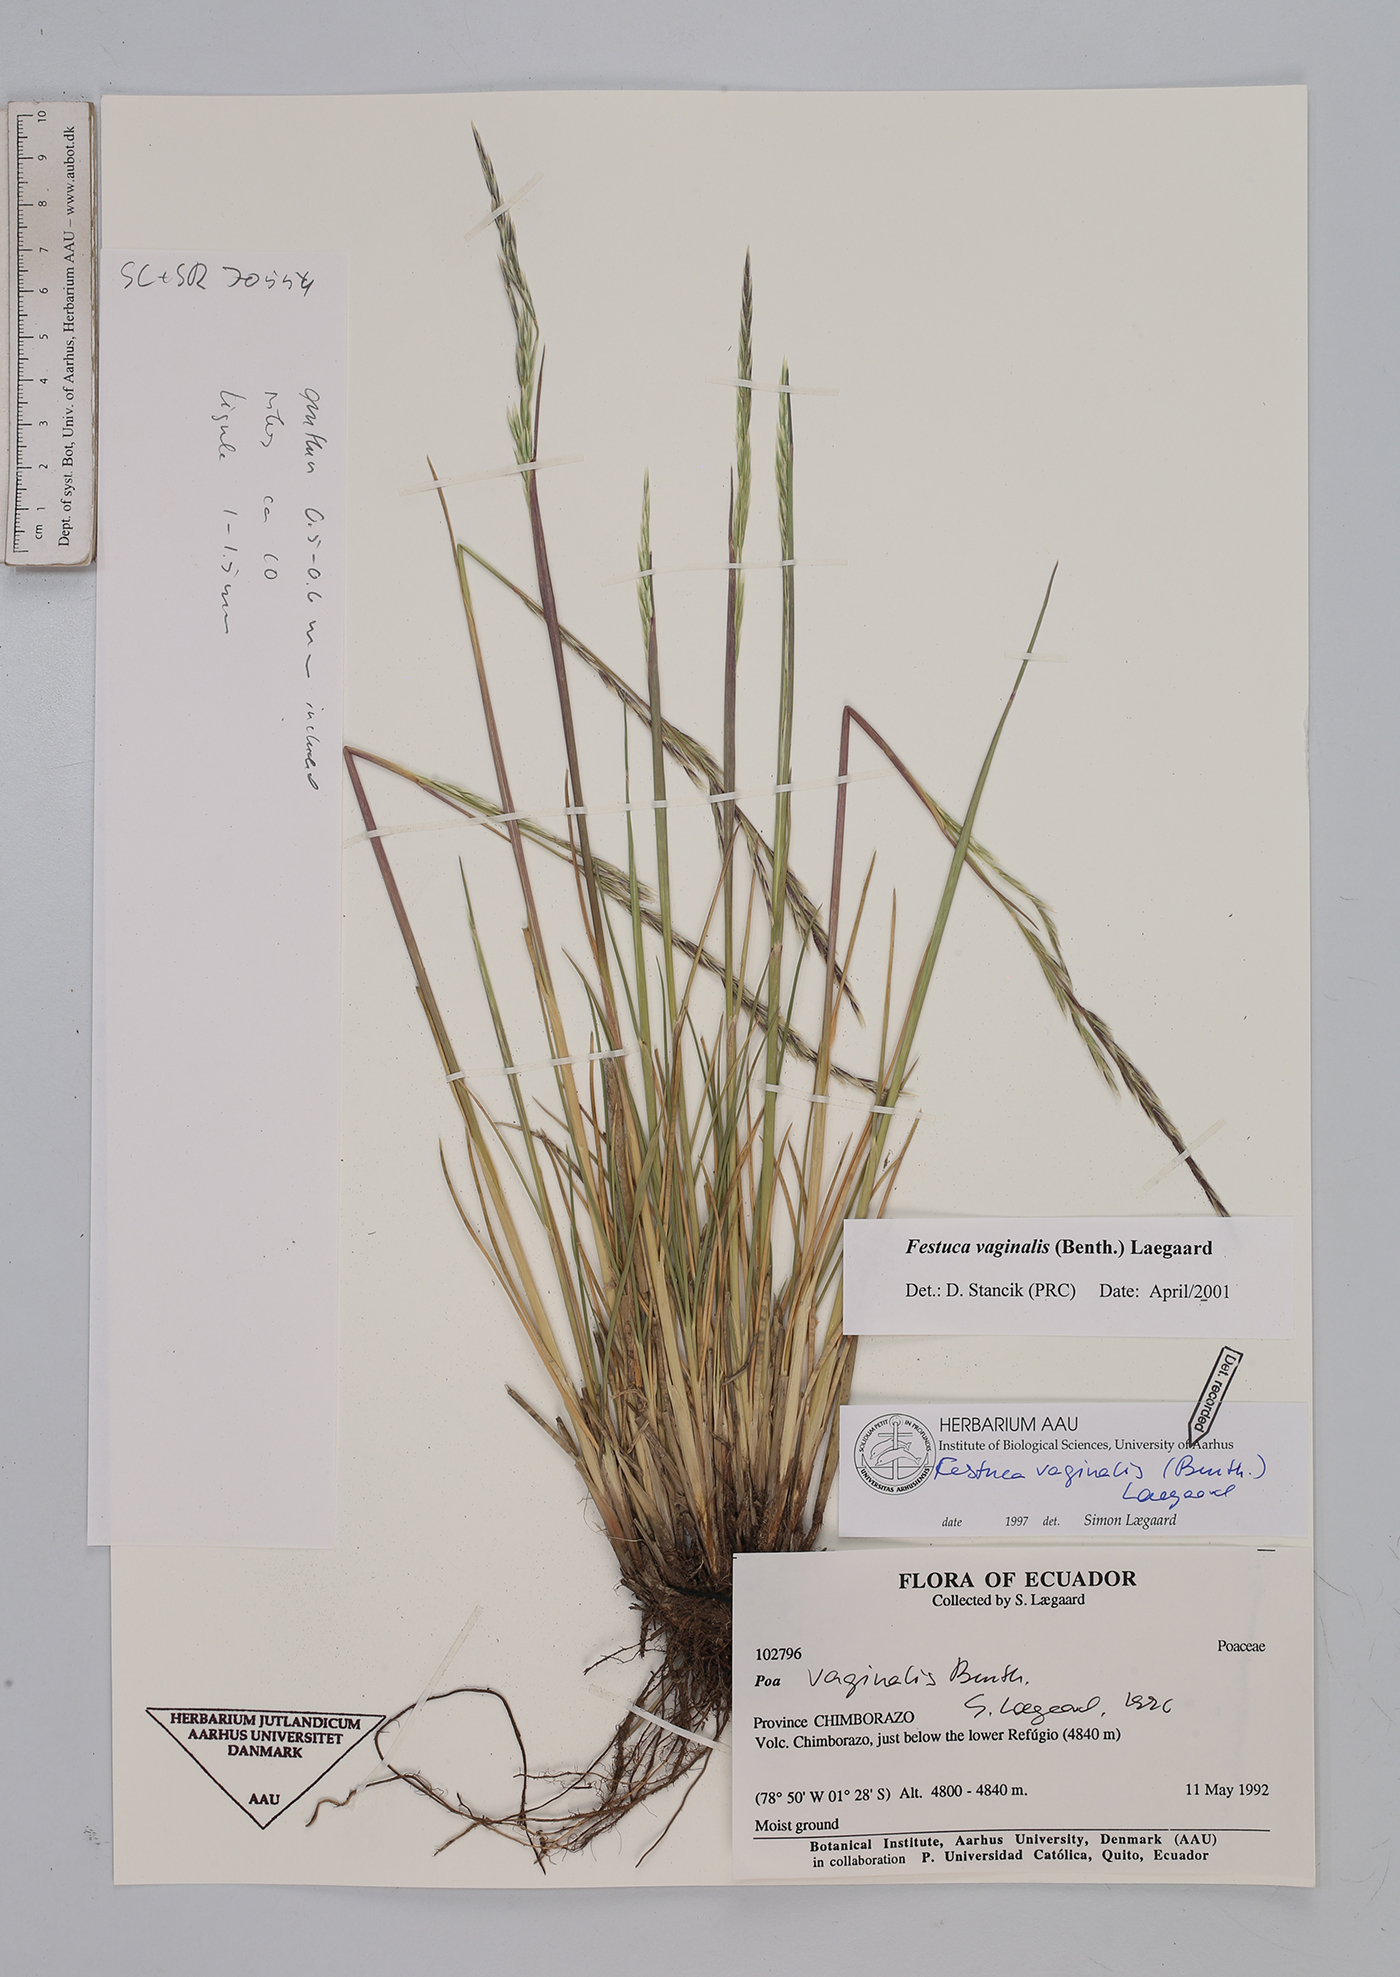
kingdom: Plantae
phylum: Tracheophyta
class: Liliopsida
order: Poales
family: Poaceae
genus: Festuca
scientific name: Festuca vaginalis
